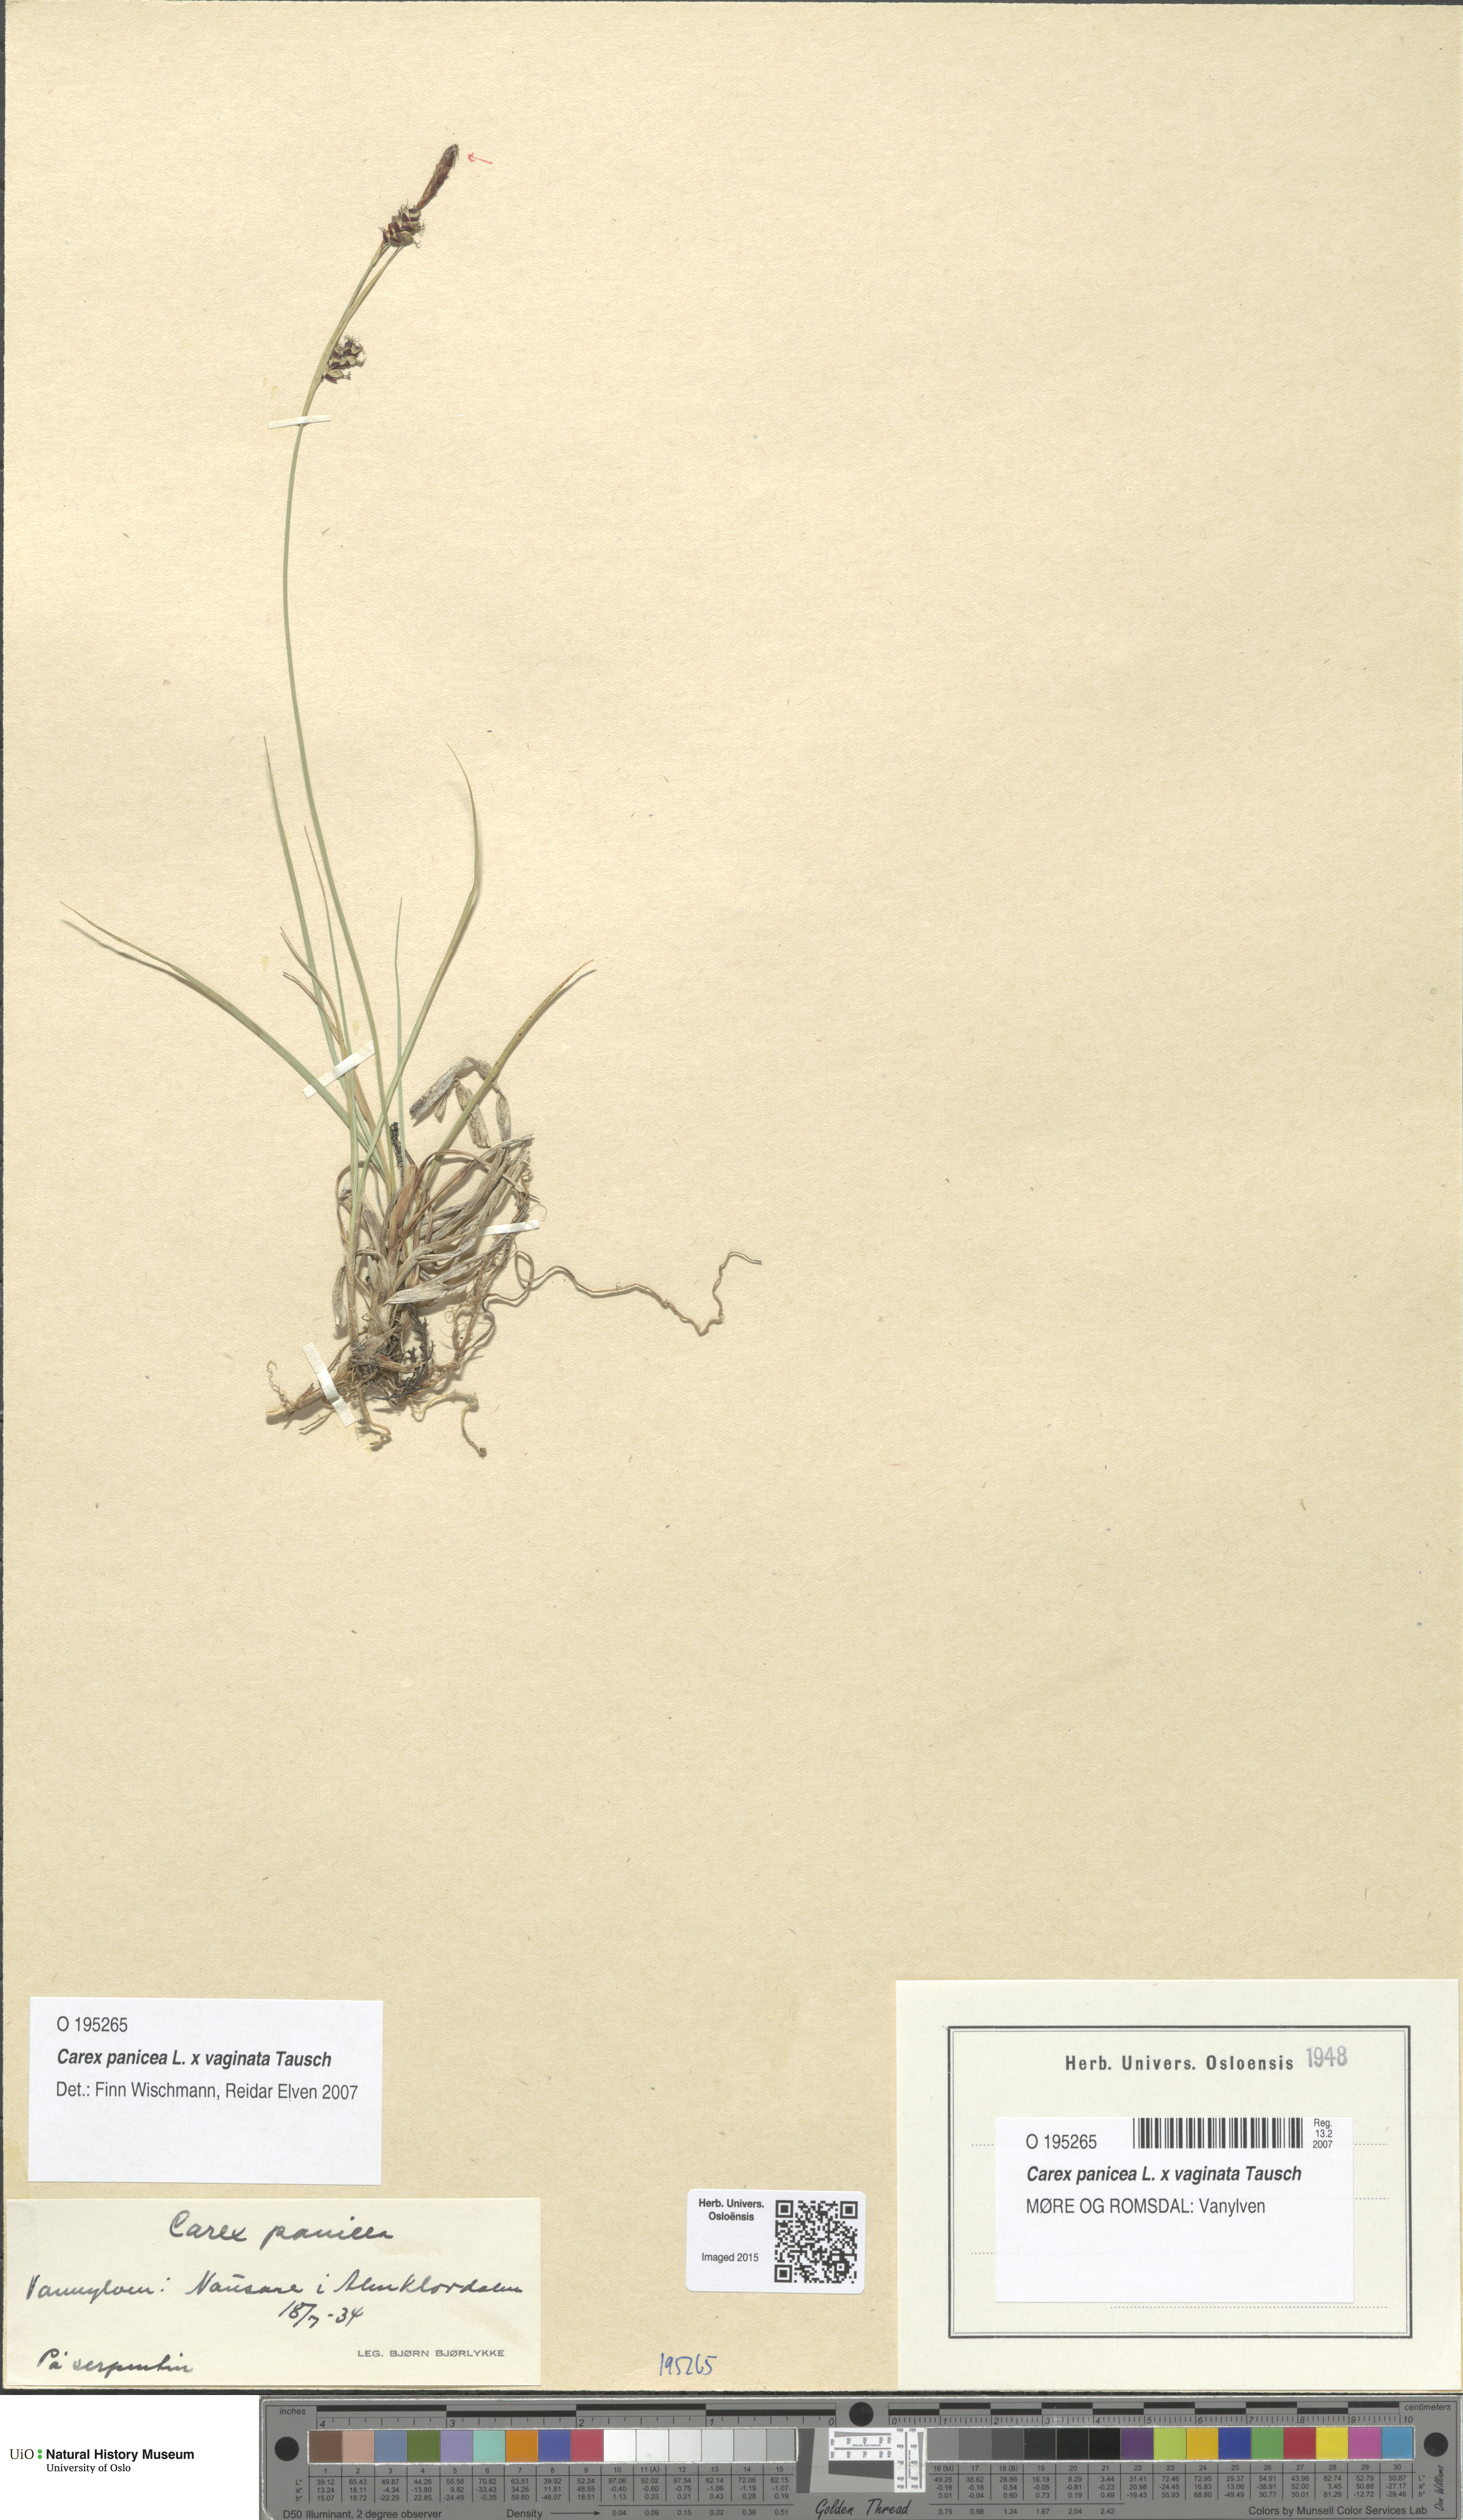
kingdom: Plantae
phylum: Tracheophyta
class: Liliopsida
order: Poales
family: Cyperaceae
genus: Carex
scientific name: Carex
